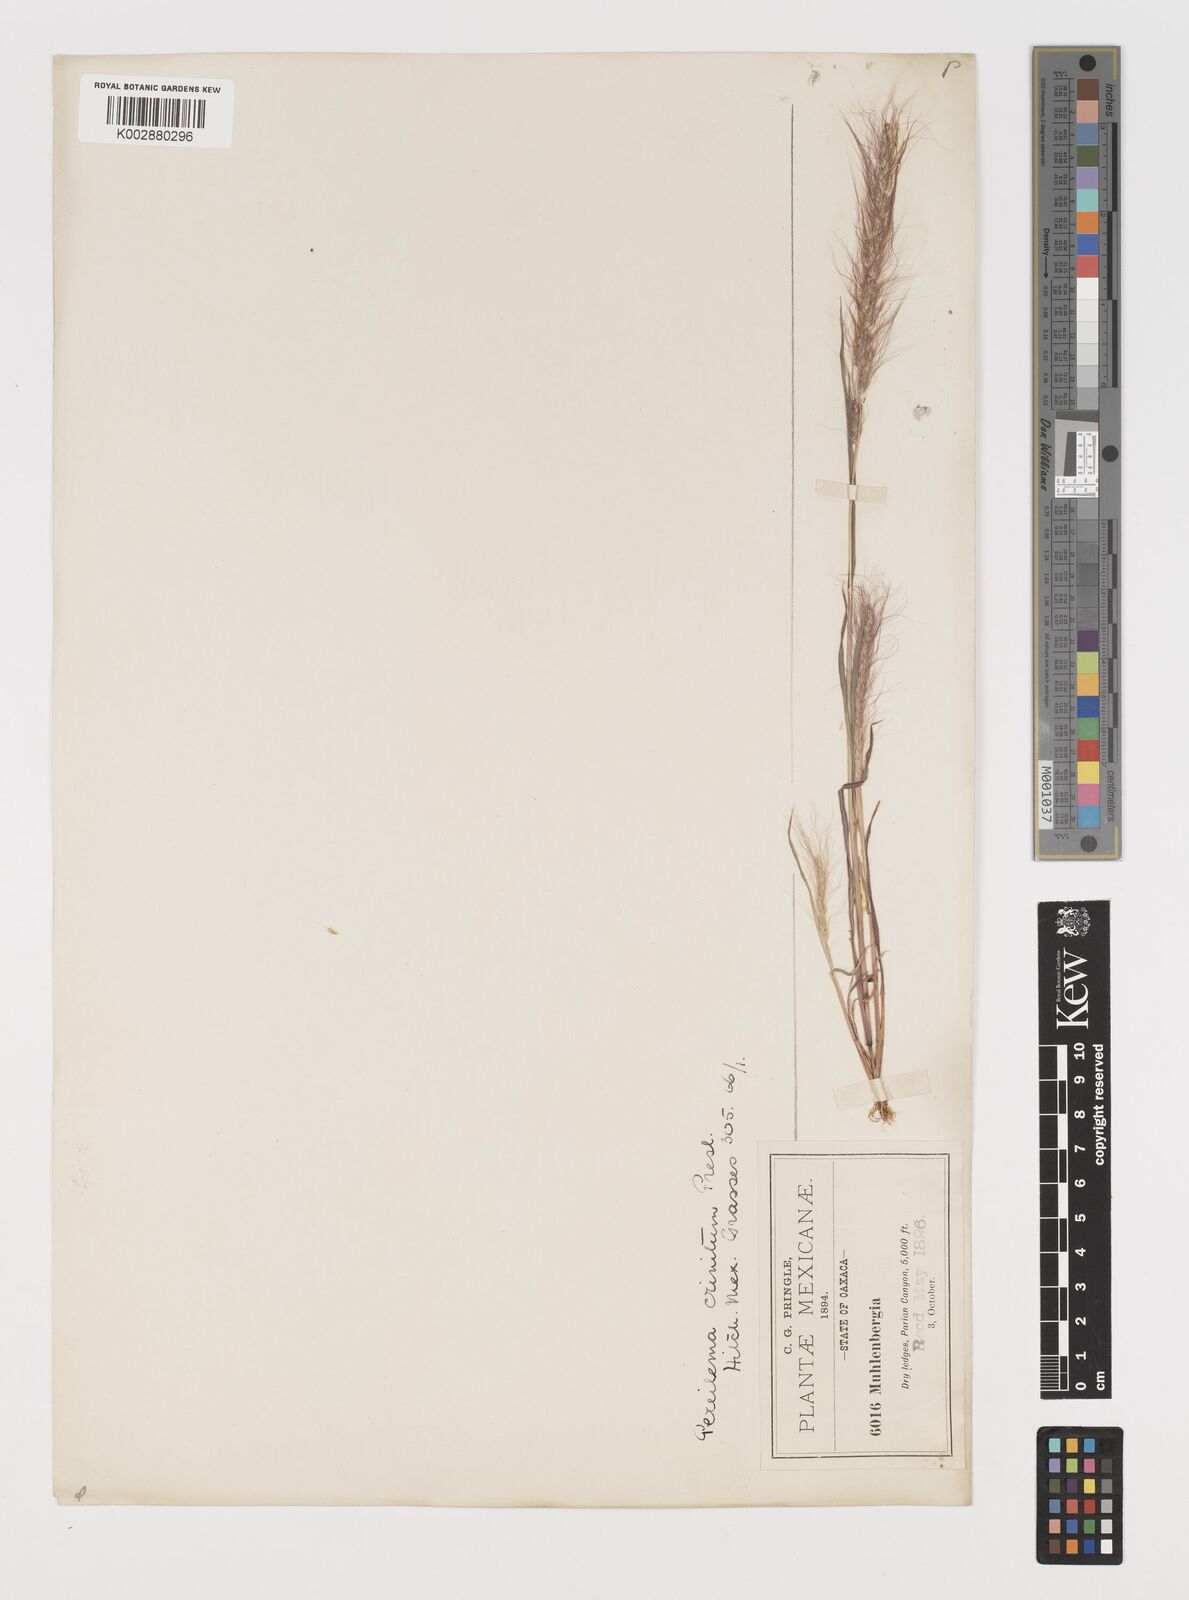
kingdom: Plantae
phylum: Tracheophyta
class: Liliopsida
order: Poales
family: Poaceae
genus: Muhlenbergia
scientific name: Muhlenbergia pereilema
